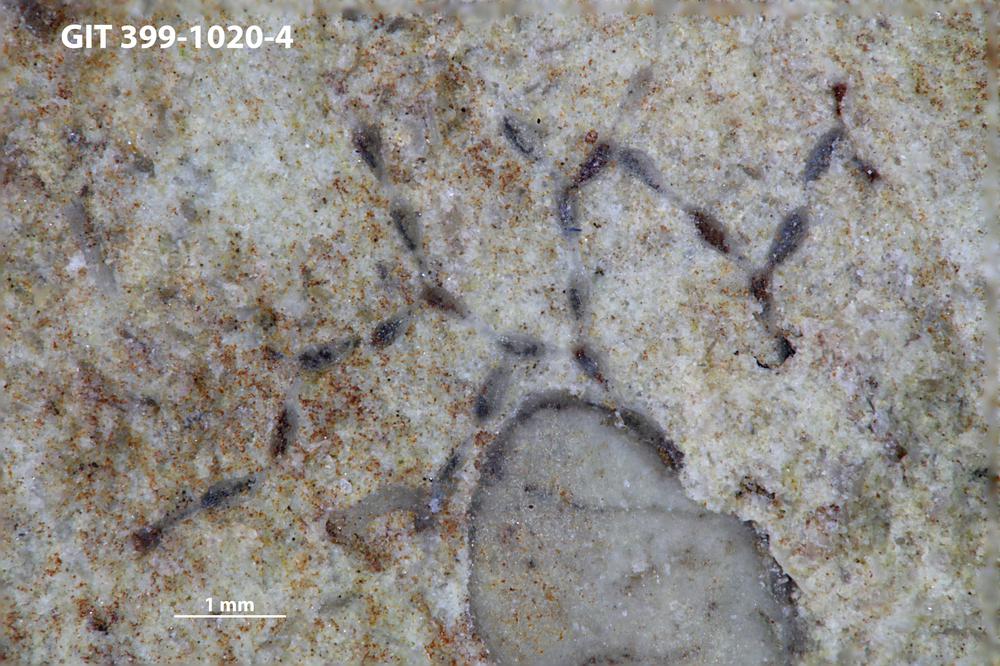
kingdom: Animalia
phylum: Bryozoa
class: Stenolaemata
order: Cyclostomatida
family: Corynotrypidae
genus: Corynotrypa
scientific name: Corynotrypa
